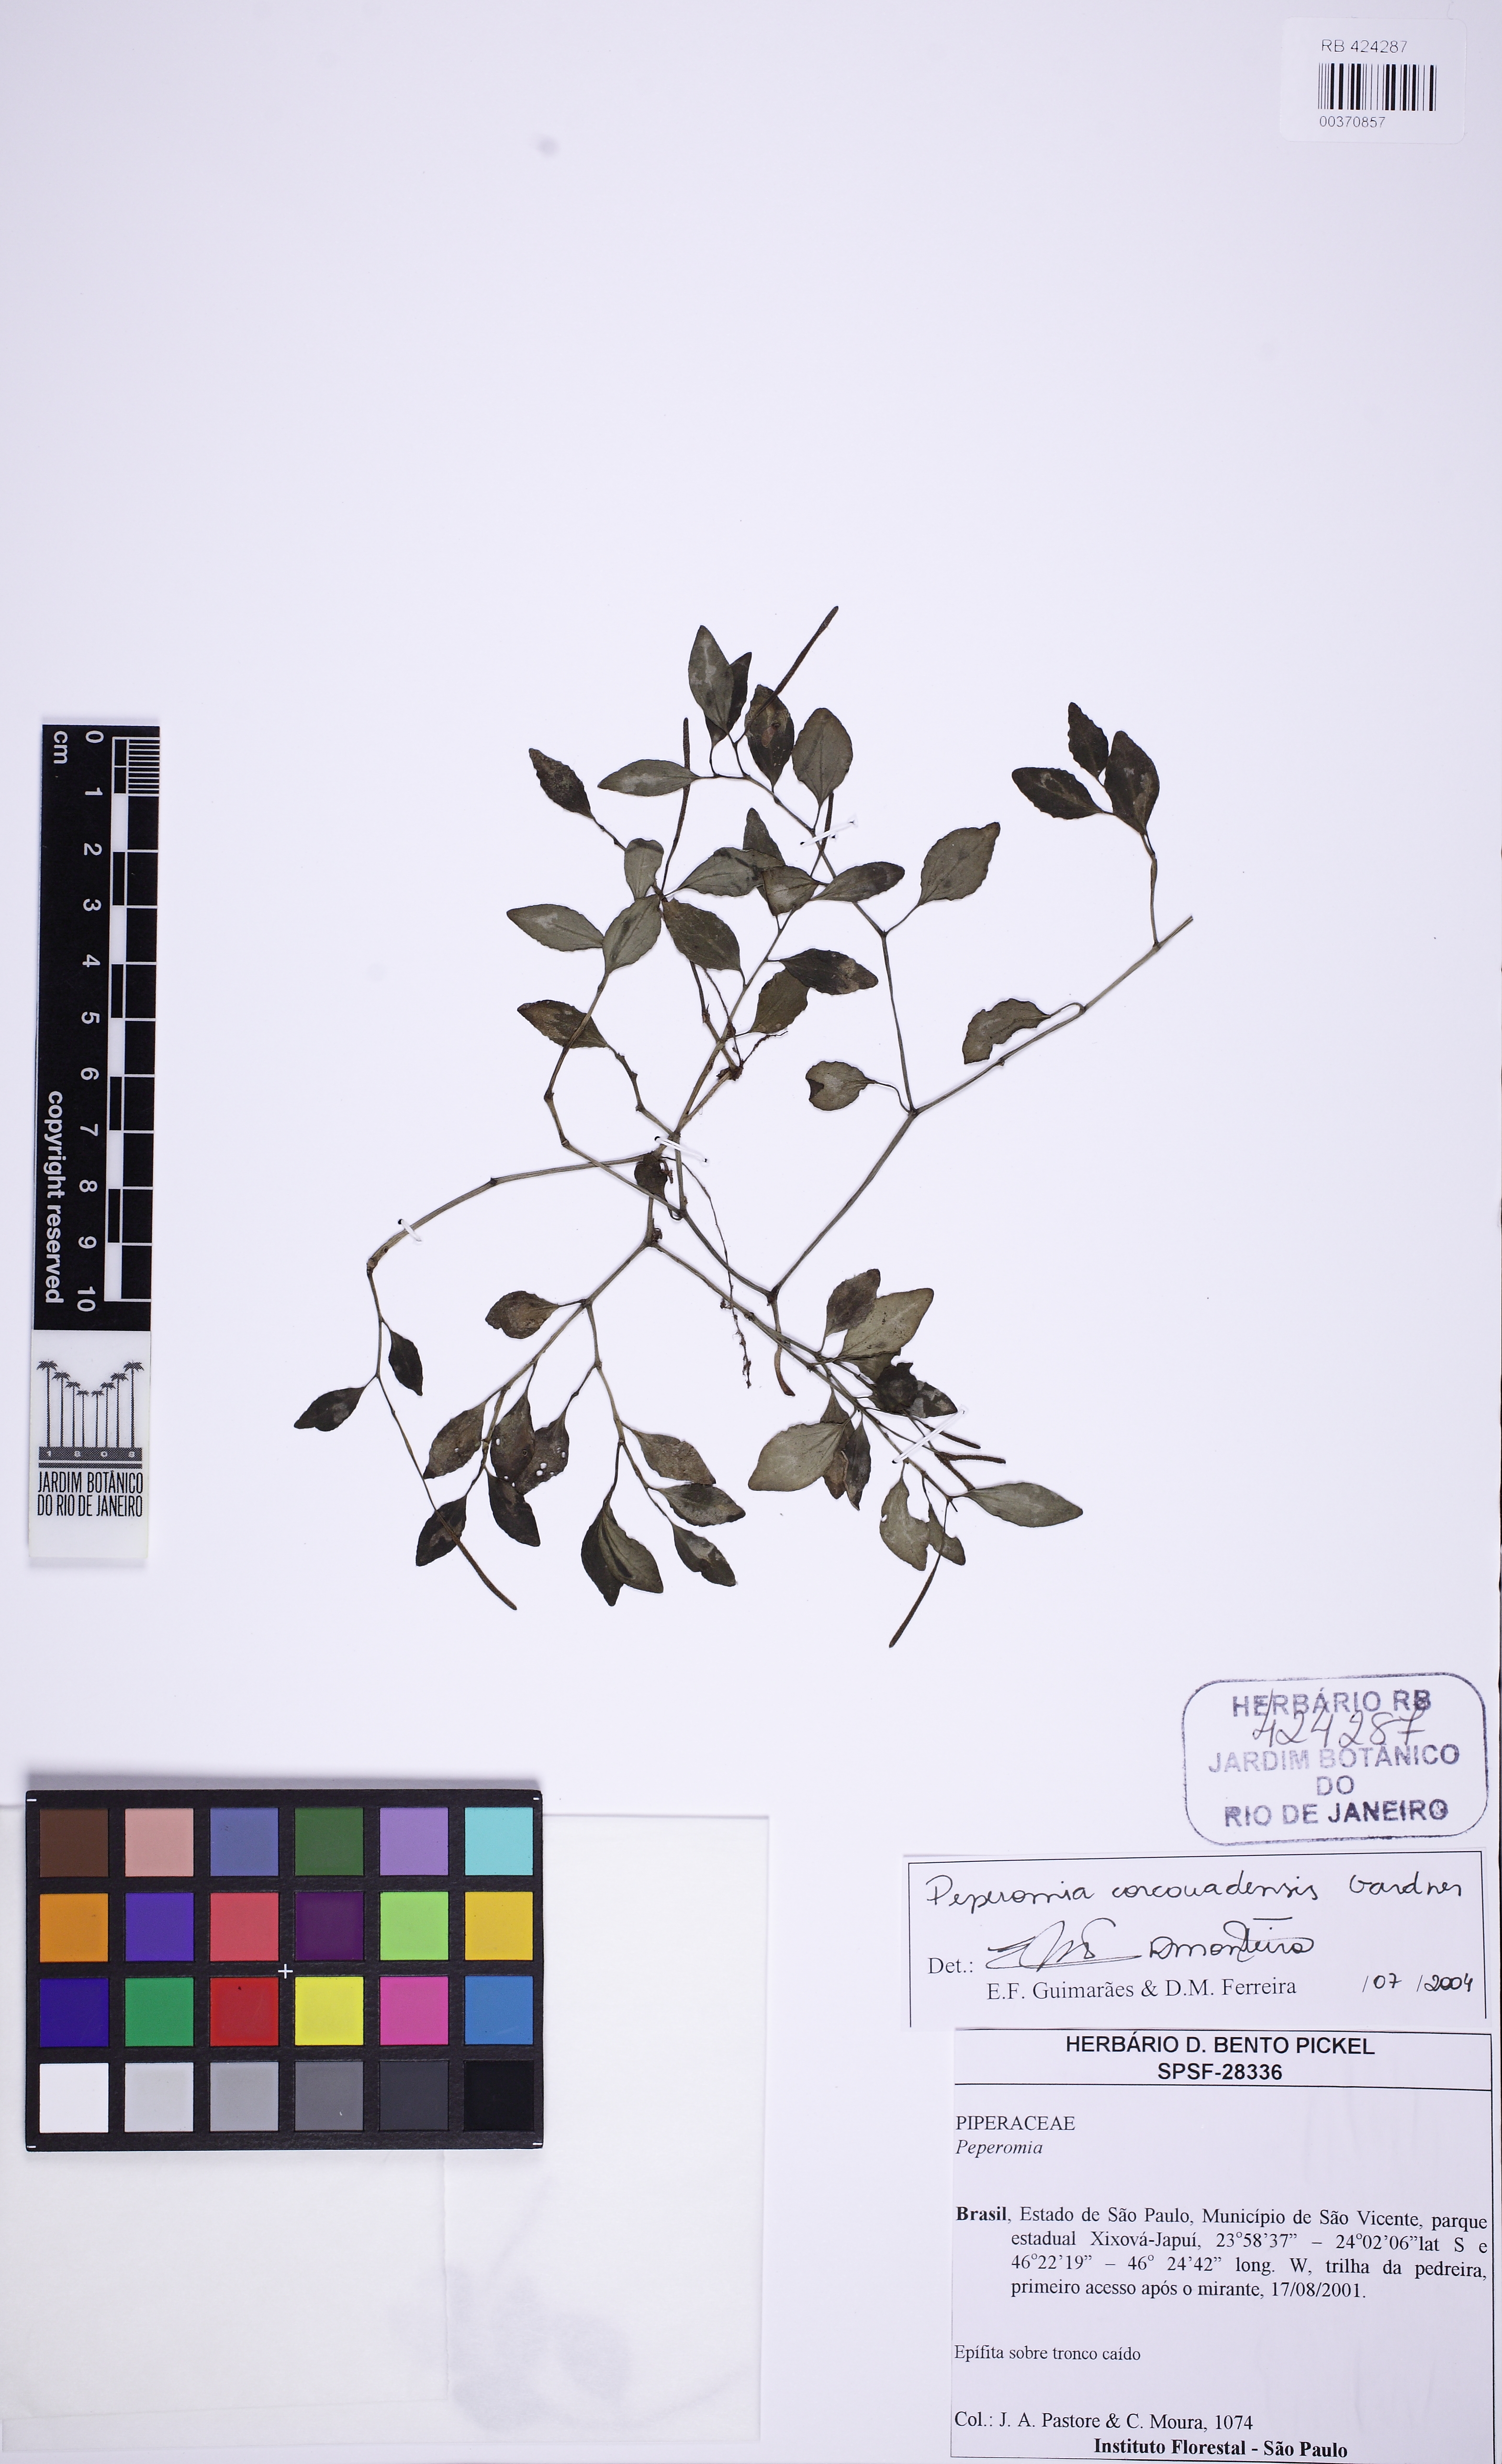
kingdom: Plantae
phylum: Tracheophyta
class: Magnoliopsida
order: Piperales
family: Piperaceae
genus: Peperomia
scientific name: Peperomia corcovadensis
